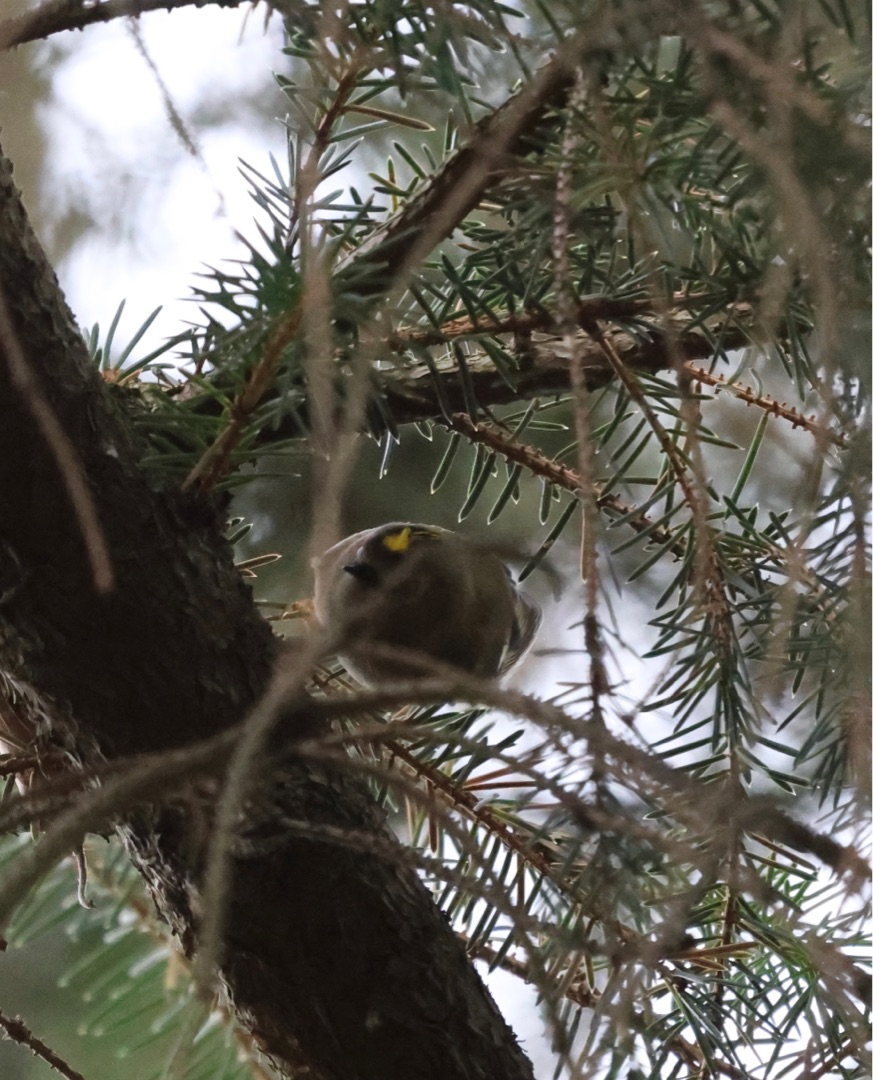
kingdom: Animalia
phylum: Chordata
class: Aves
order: Passeriformes
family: Regulidae
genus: Regulus
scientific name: Regulus regulus
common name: Fuglekonge
